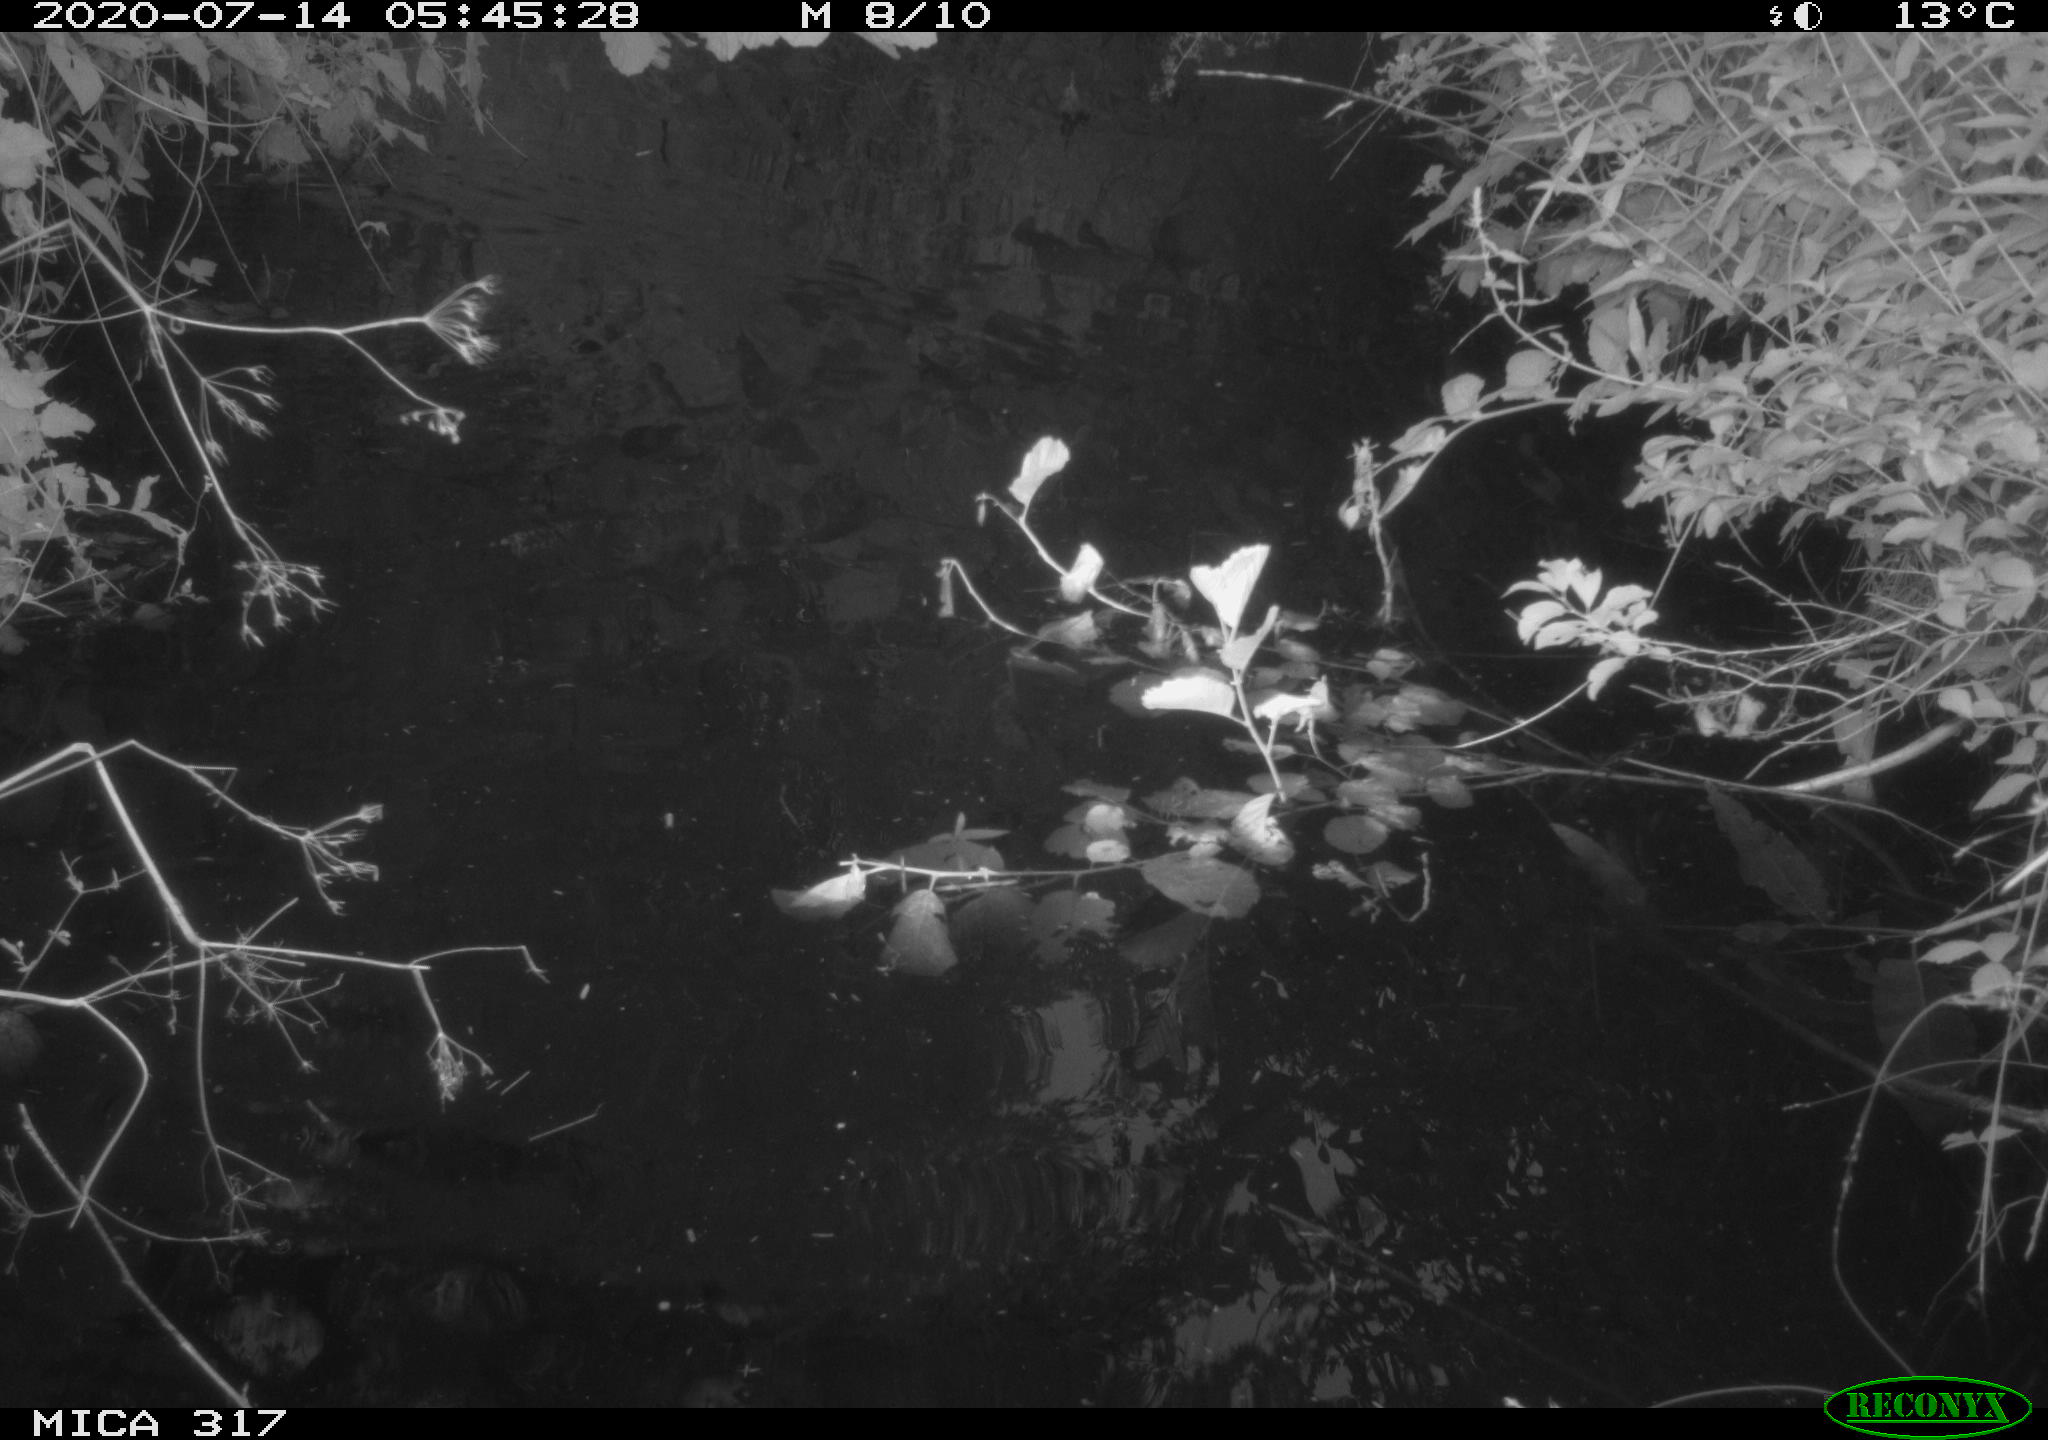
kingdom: Animalia
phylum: Chordata
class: Mammalia
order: Rodentia
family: Muridae
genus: Rattus
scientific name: Rattus norvegicus
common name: Brown rat
